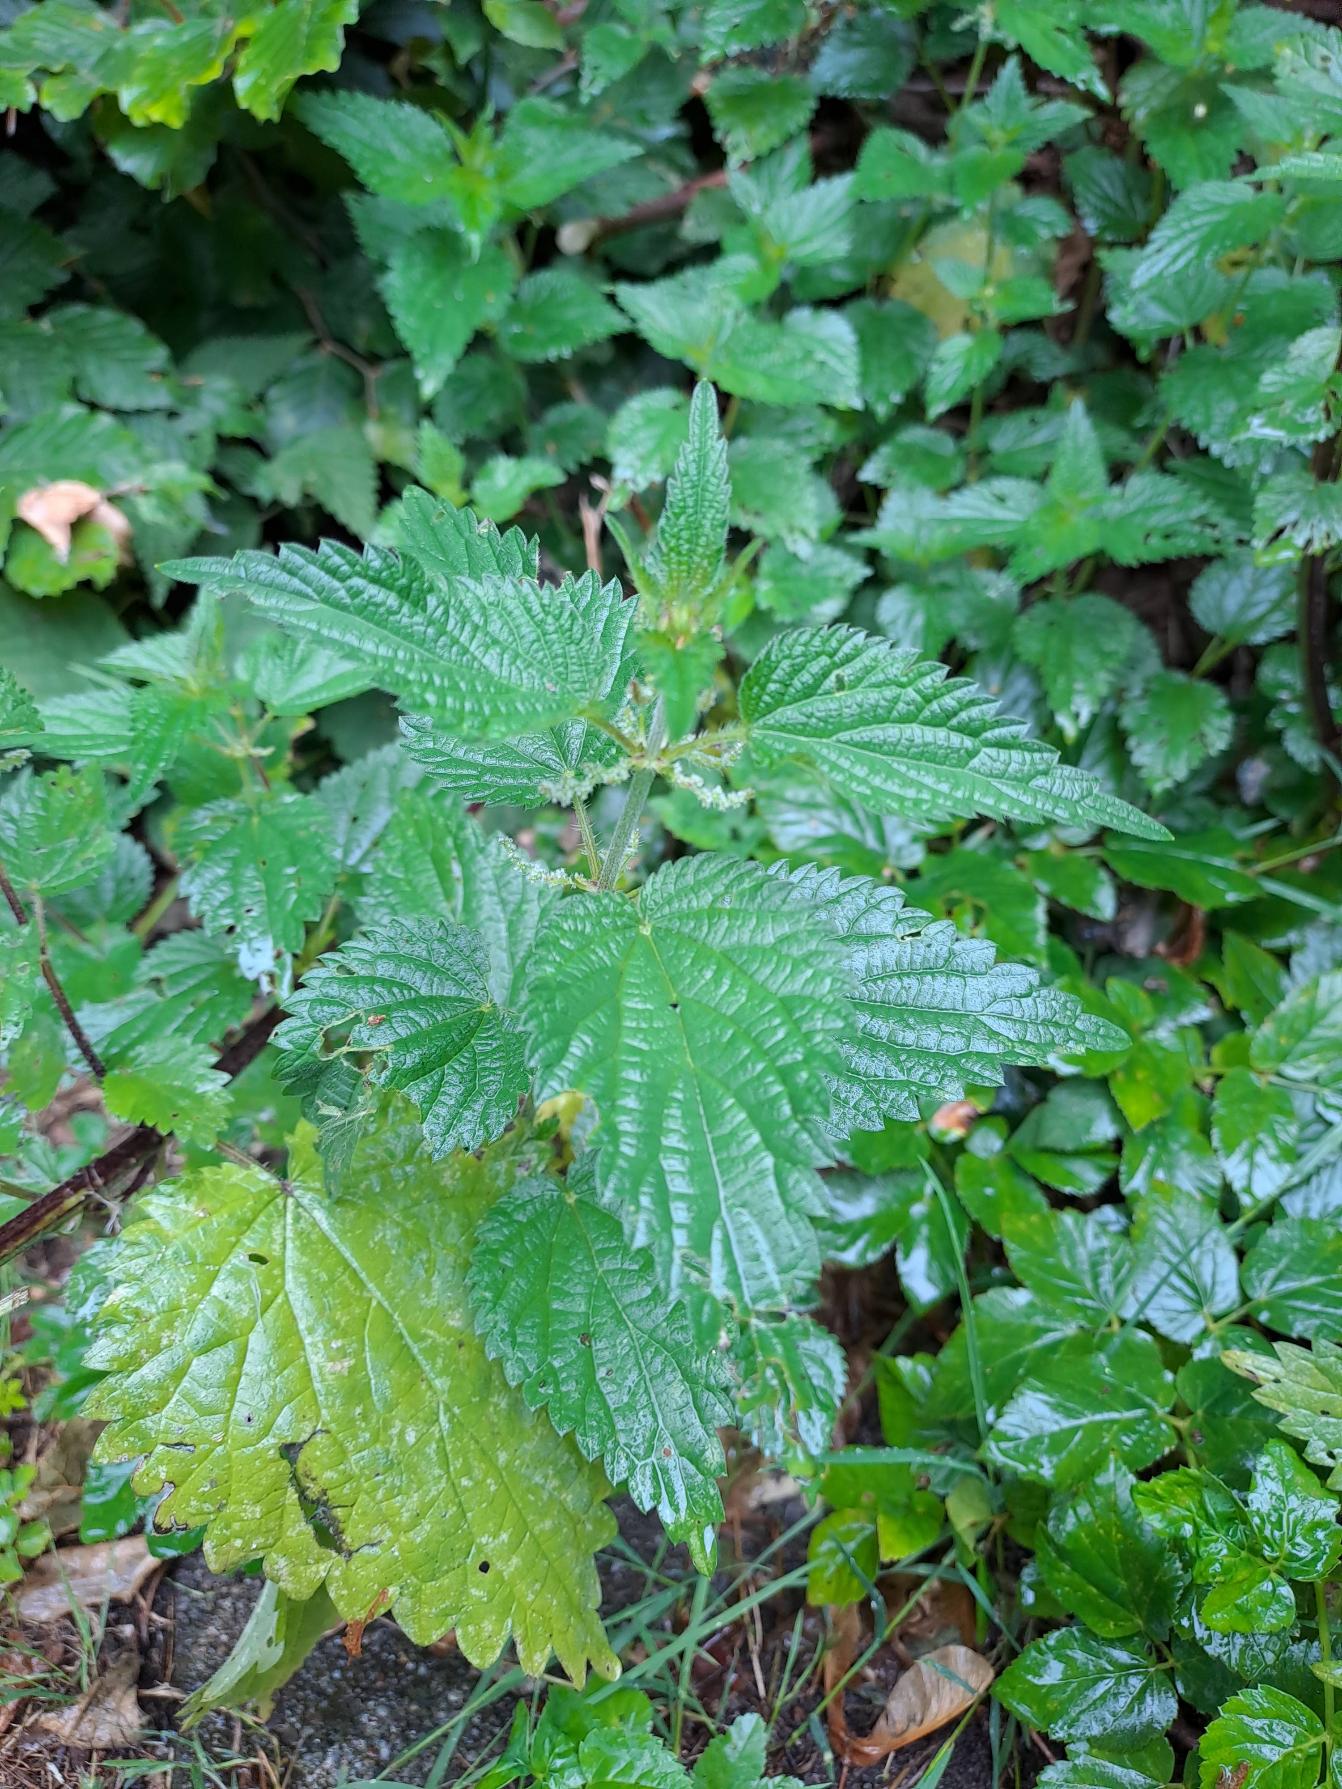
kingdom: Plantae
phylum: Tracheophyta
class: Magnoliopsida
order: Rosales
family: Urticaceae
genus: Urtica
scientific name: Urtica dioica
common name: Stor nælde
